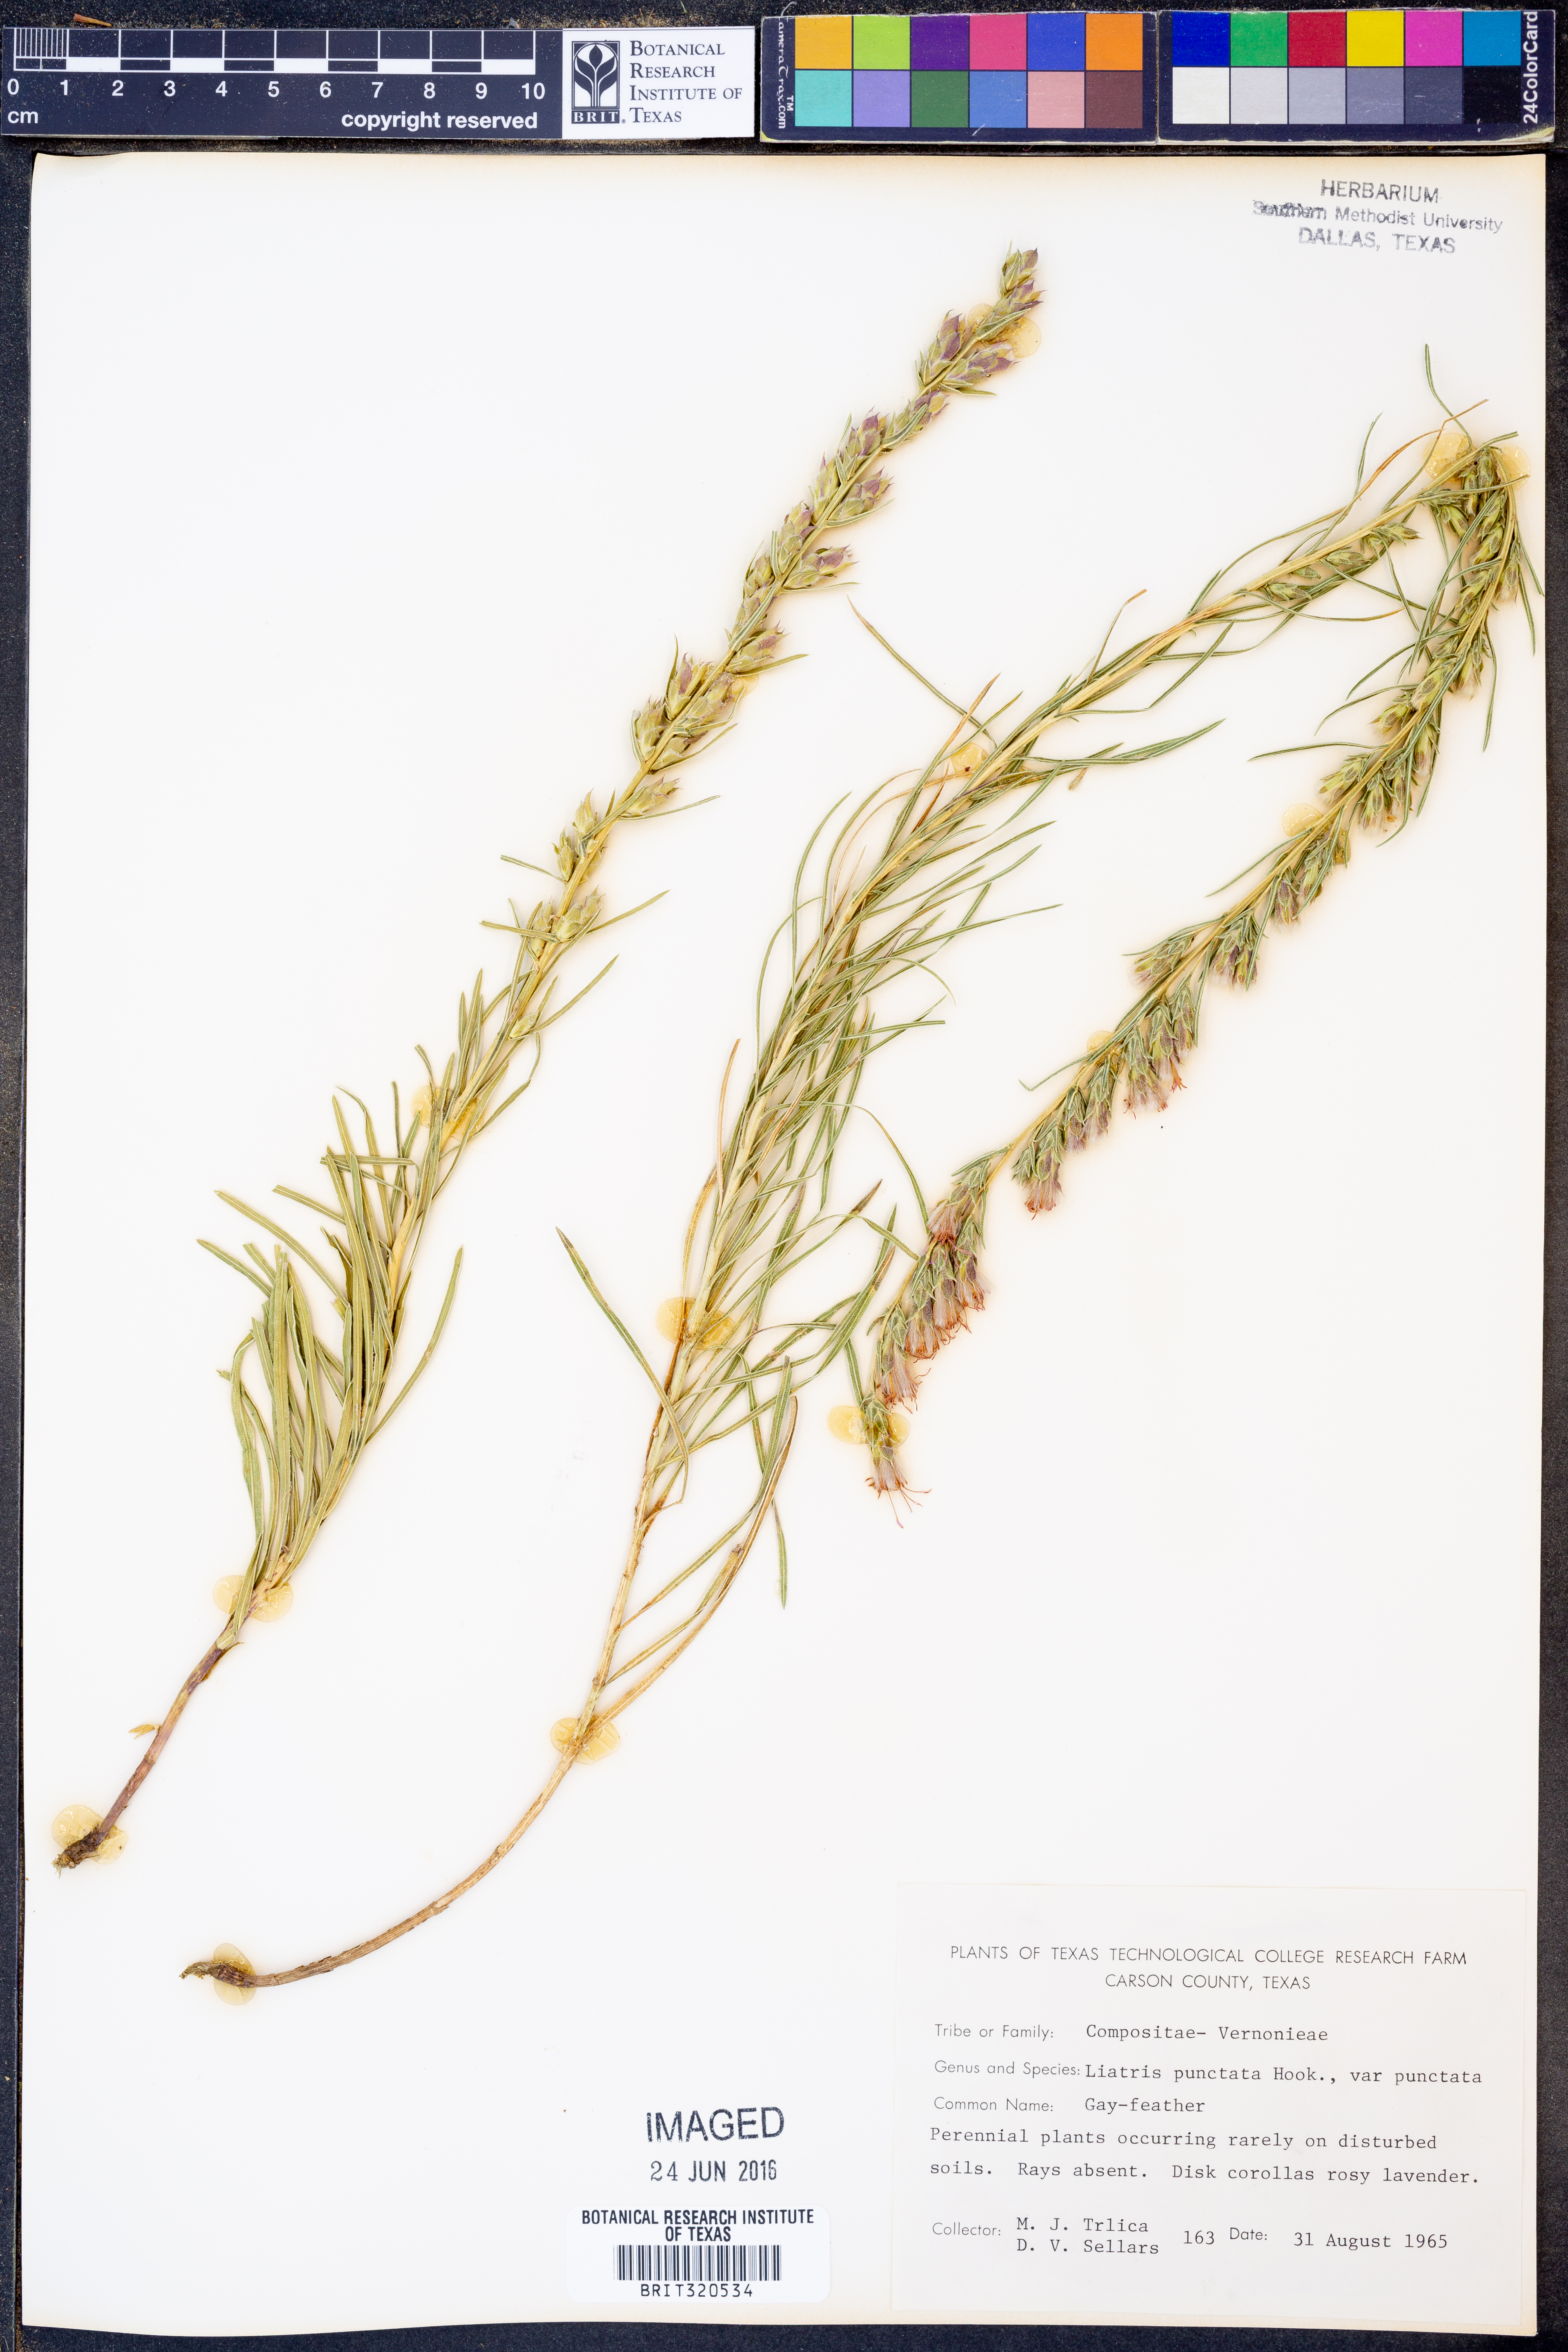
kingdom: Plantae
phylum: Tracheophyta
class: Magnoliopsida
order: Asterales
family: Asteraceae
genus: Liatris
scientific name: Liatris punctata
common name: Dotted gayfeather
